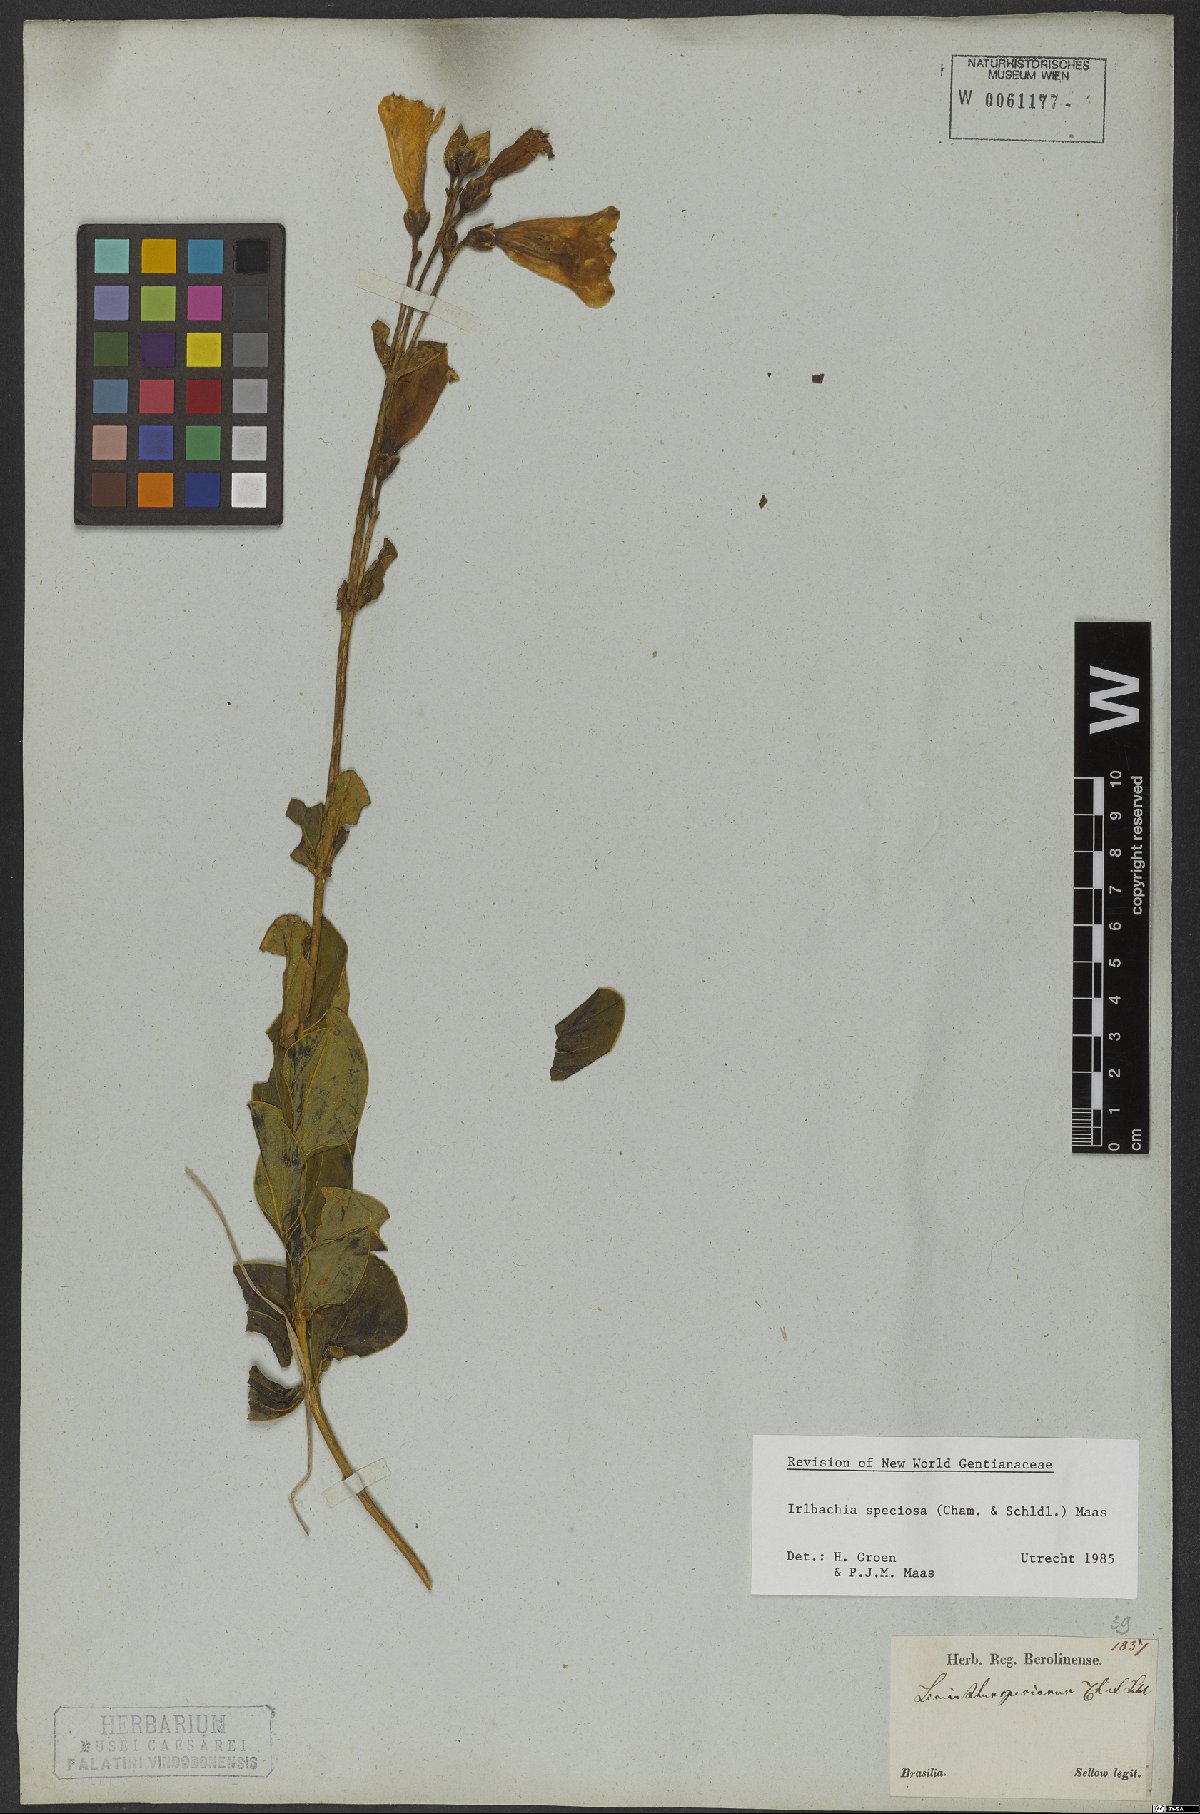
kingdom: Plantae
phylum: Tracheophyta
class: Magnoliopsida
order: Gentianales
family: Gentianaceae
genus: Calolisianthus
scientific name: Calolisianthus speciosus
